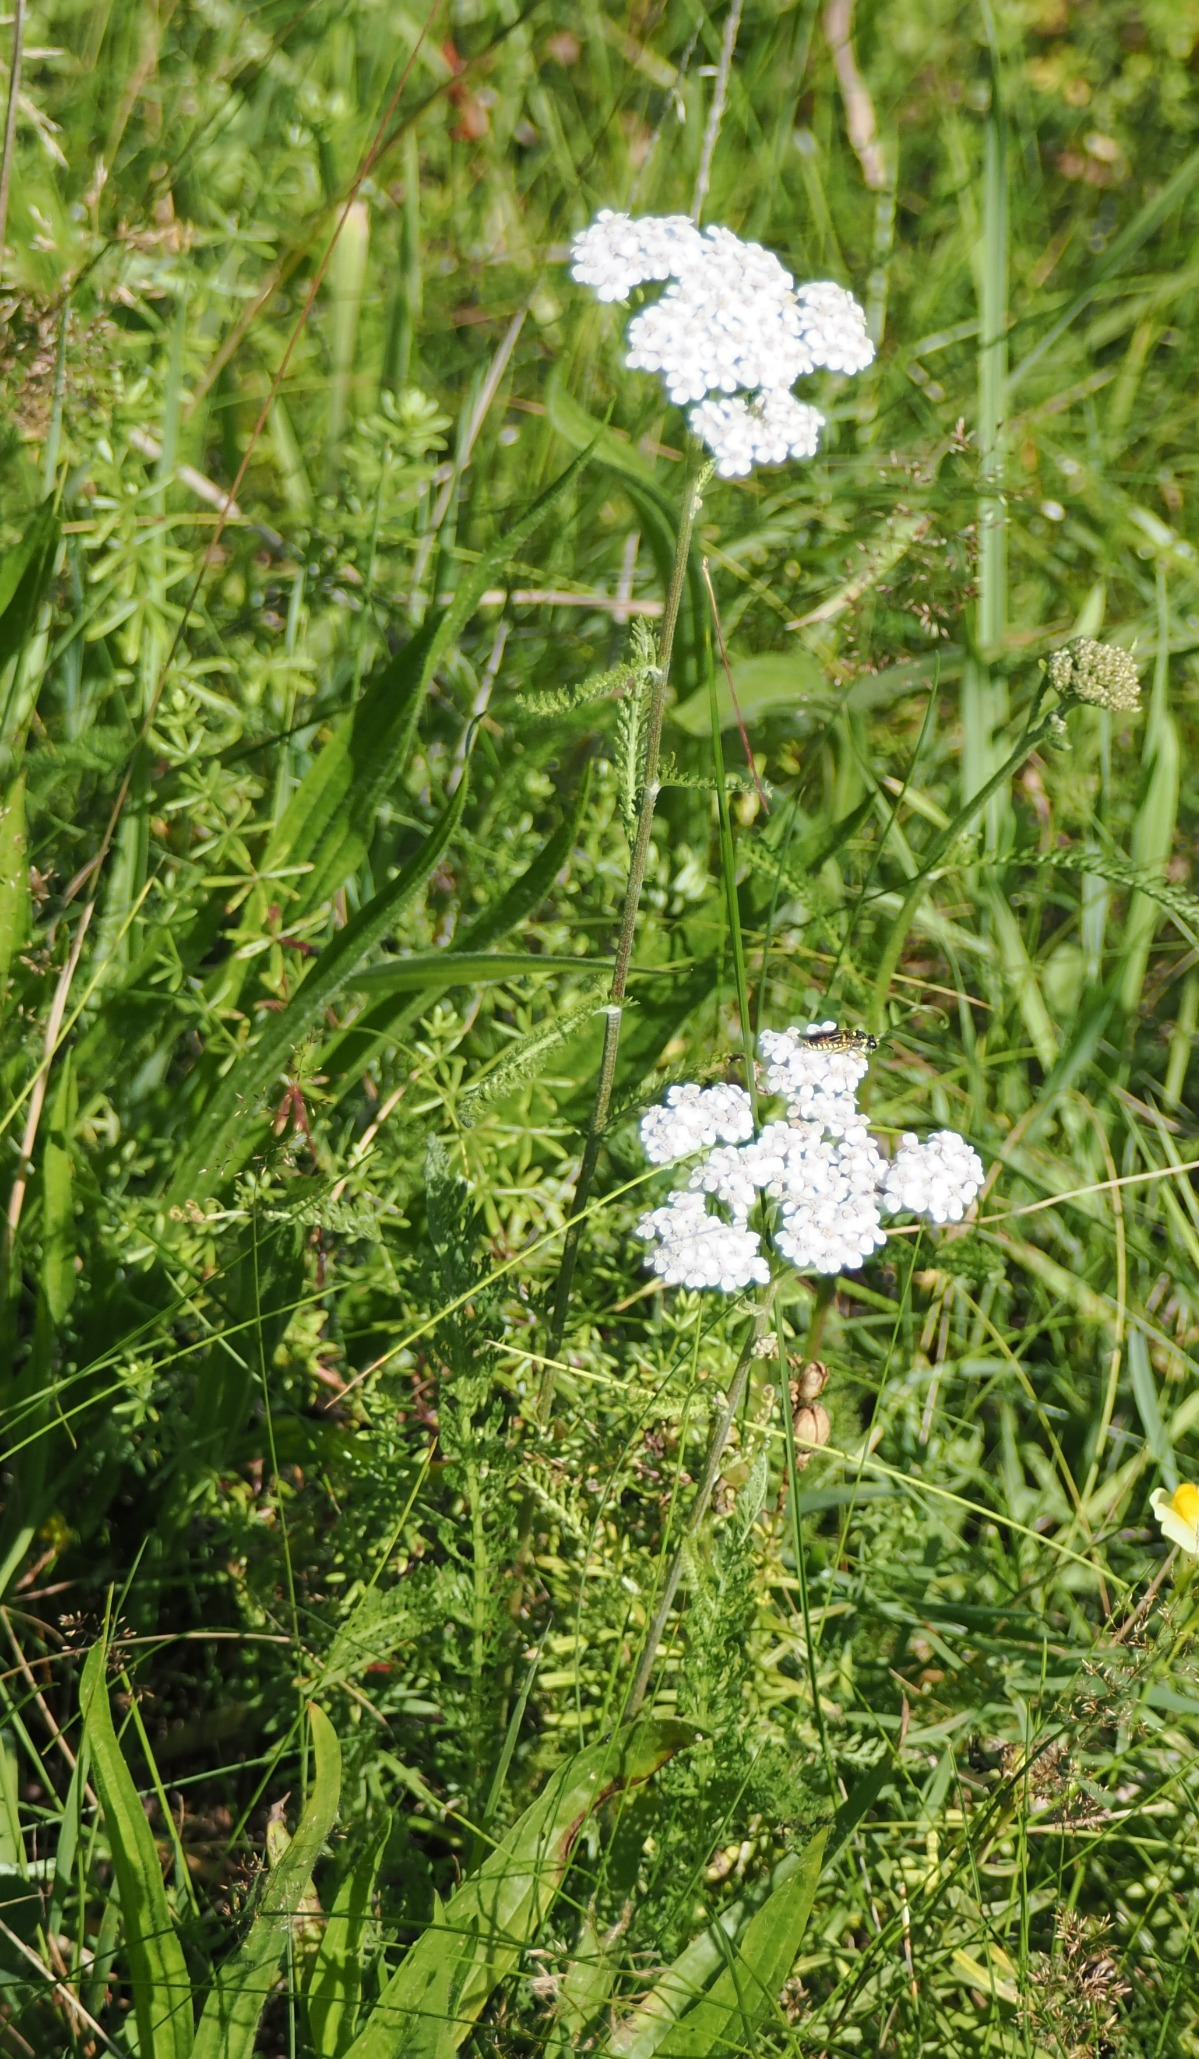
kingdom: Plantae
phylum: Tracheophyta
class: Magnoliopsida
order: Asterales
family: Asteraceae
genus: Achillea
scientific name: Achillea millefolium
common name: Almindelig røllike
